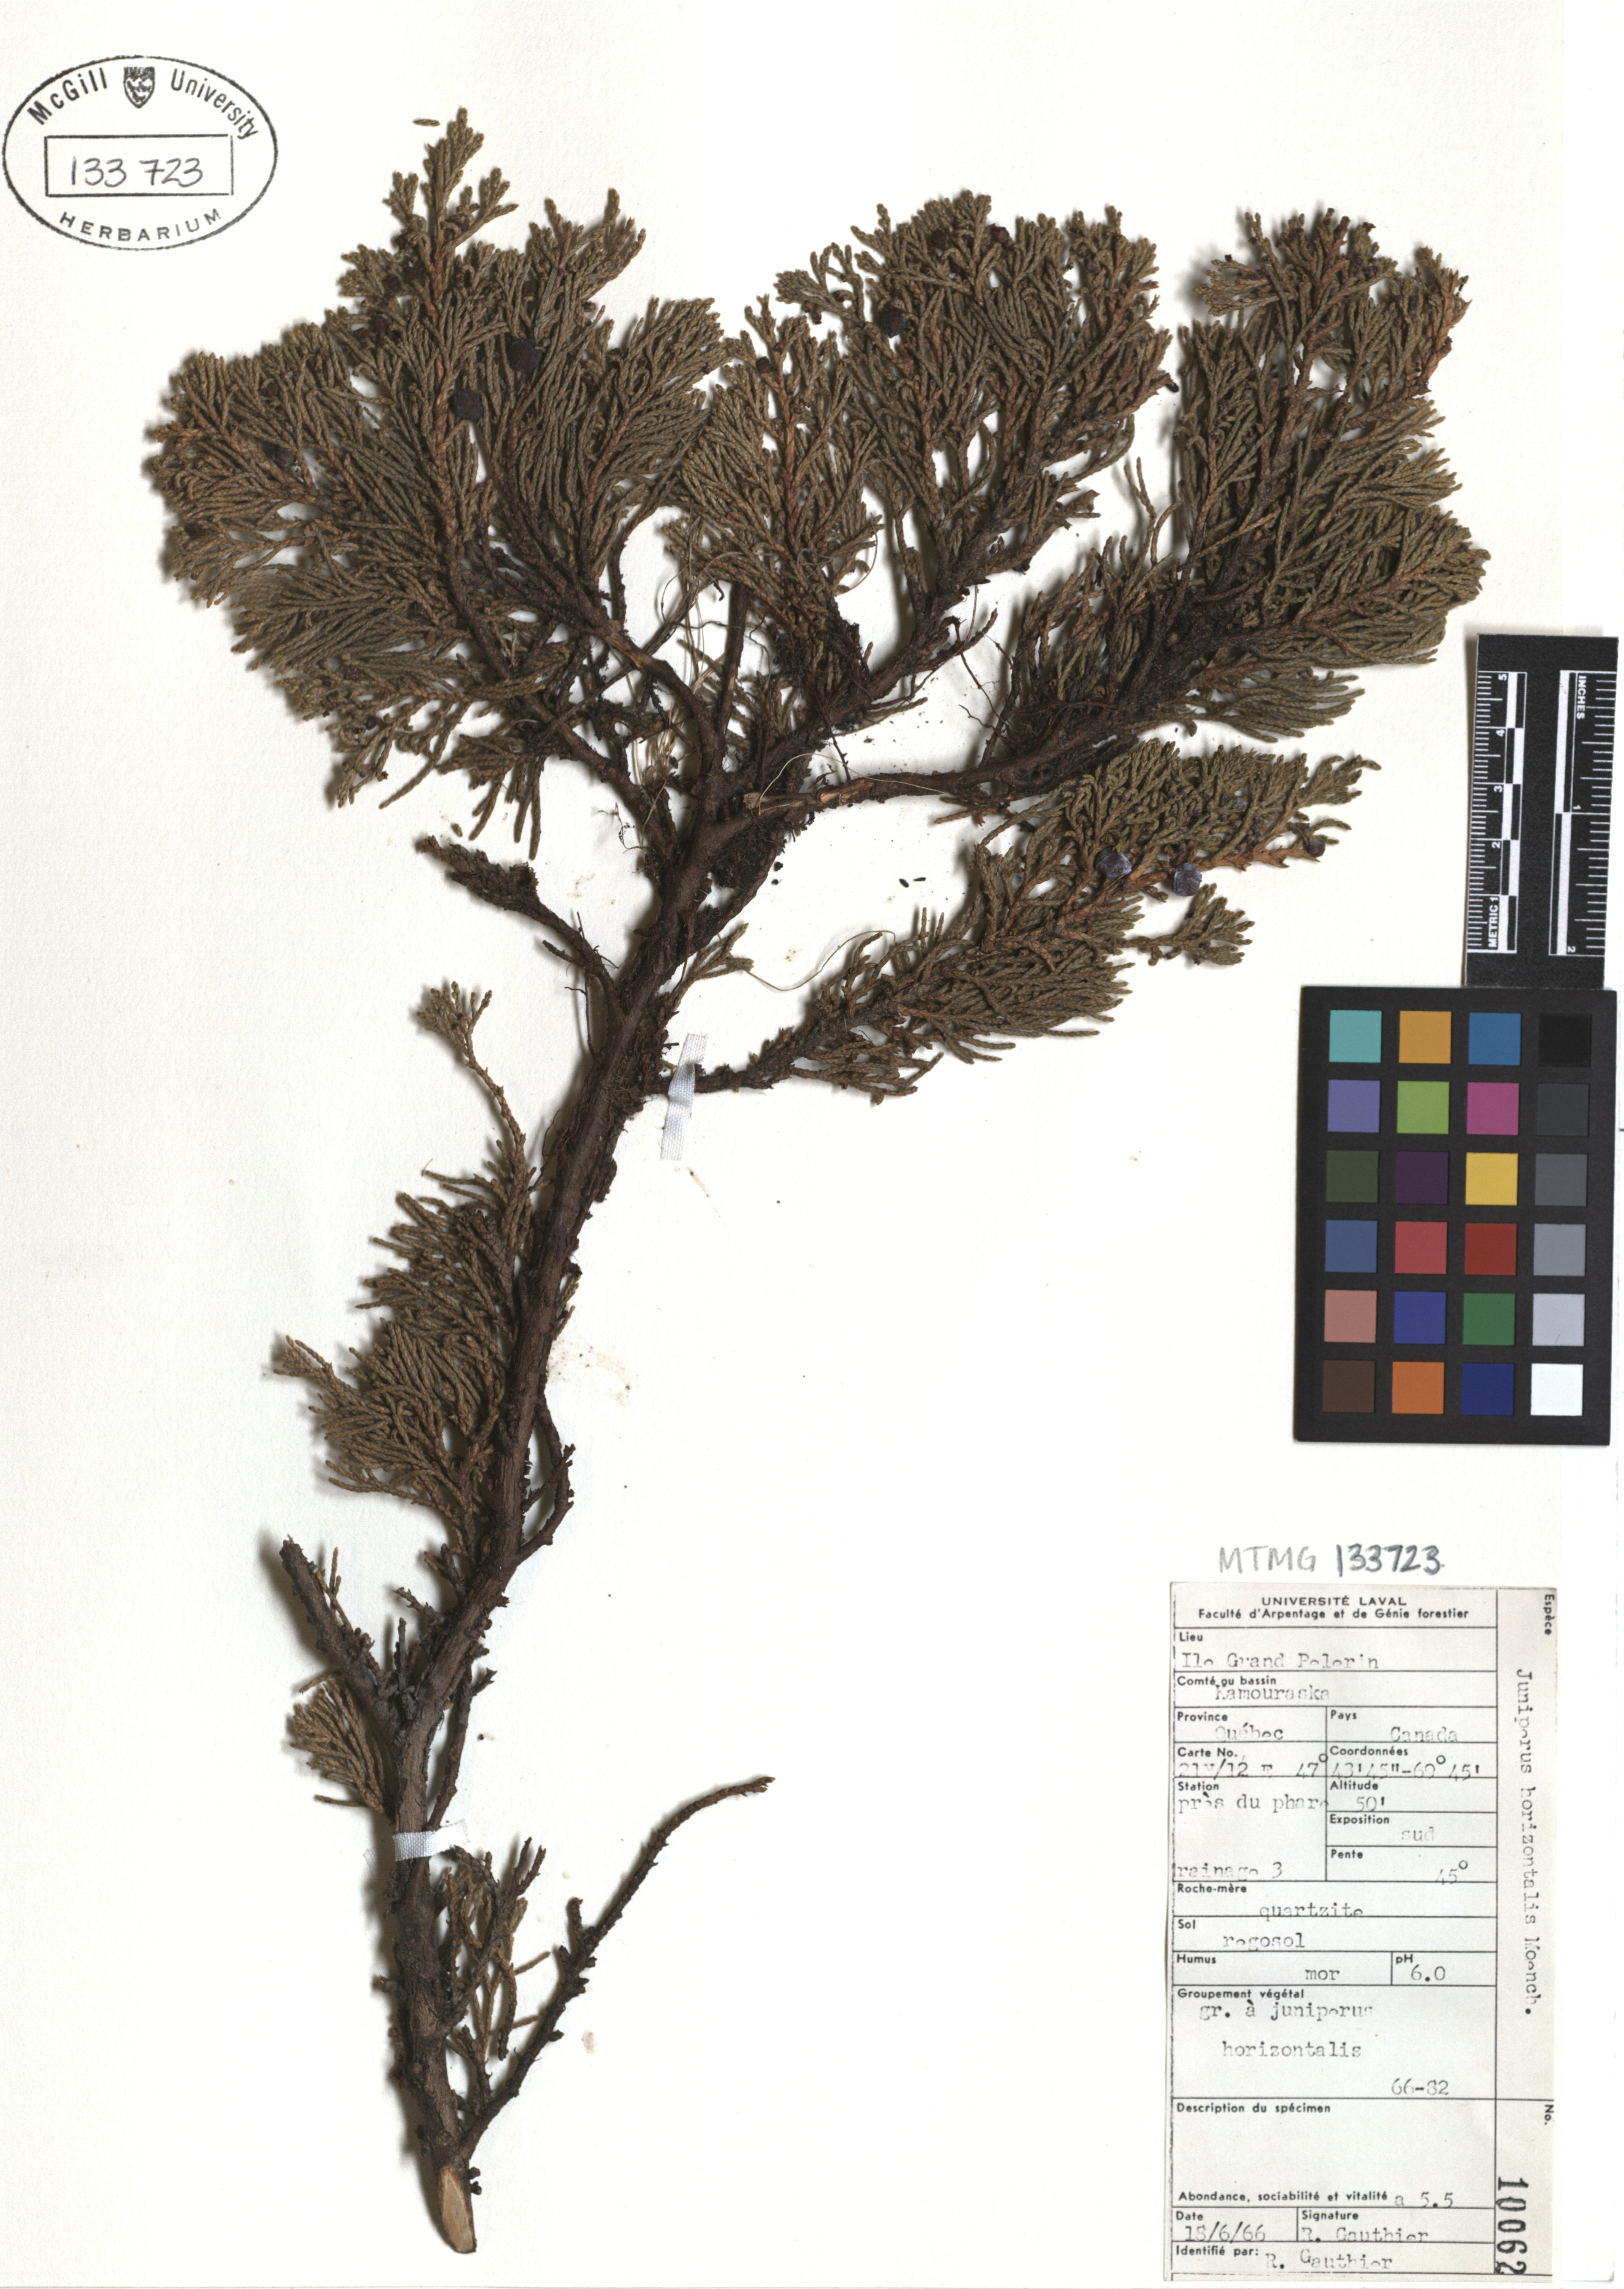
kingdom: Plantae
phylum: Tracheophyta
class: Pinopsida
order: Pinales
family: Cupressaceae
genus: Juniperus
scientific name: Juniperus horizontalis
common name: Creeping juniper
